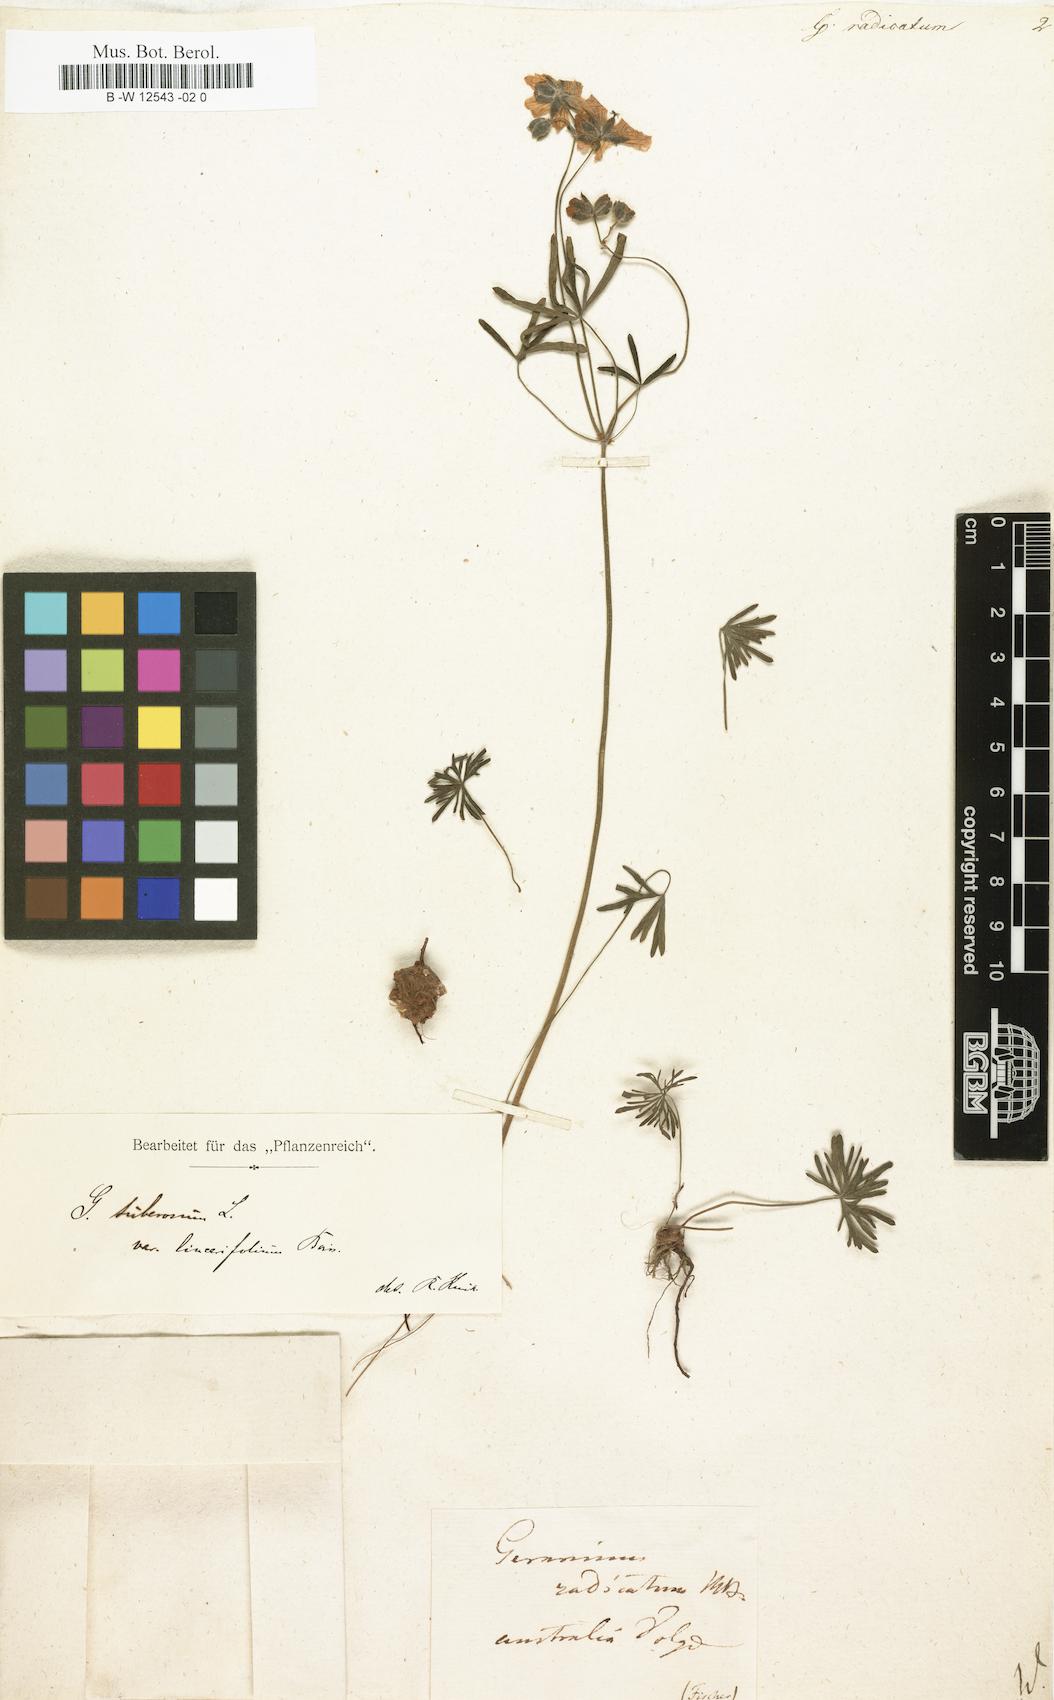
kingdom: Plantae
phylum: Tracheophyta
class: Magnoliopsida
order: Geraniales
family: Geraniaceae
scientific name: Geraniaceae
